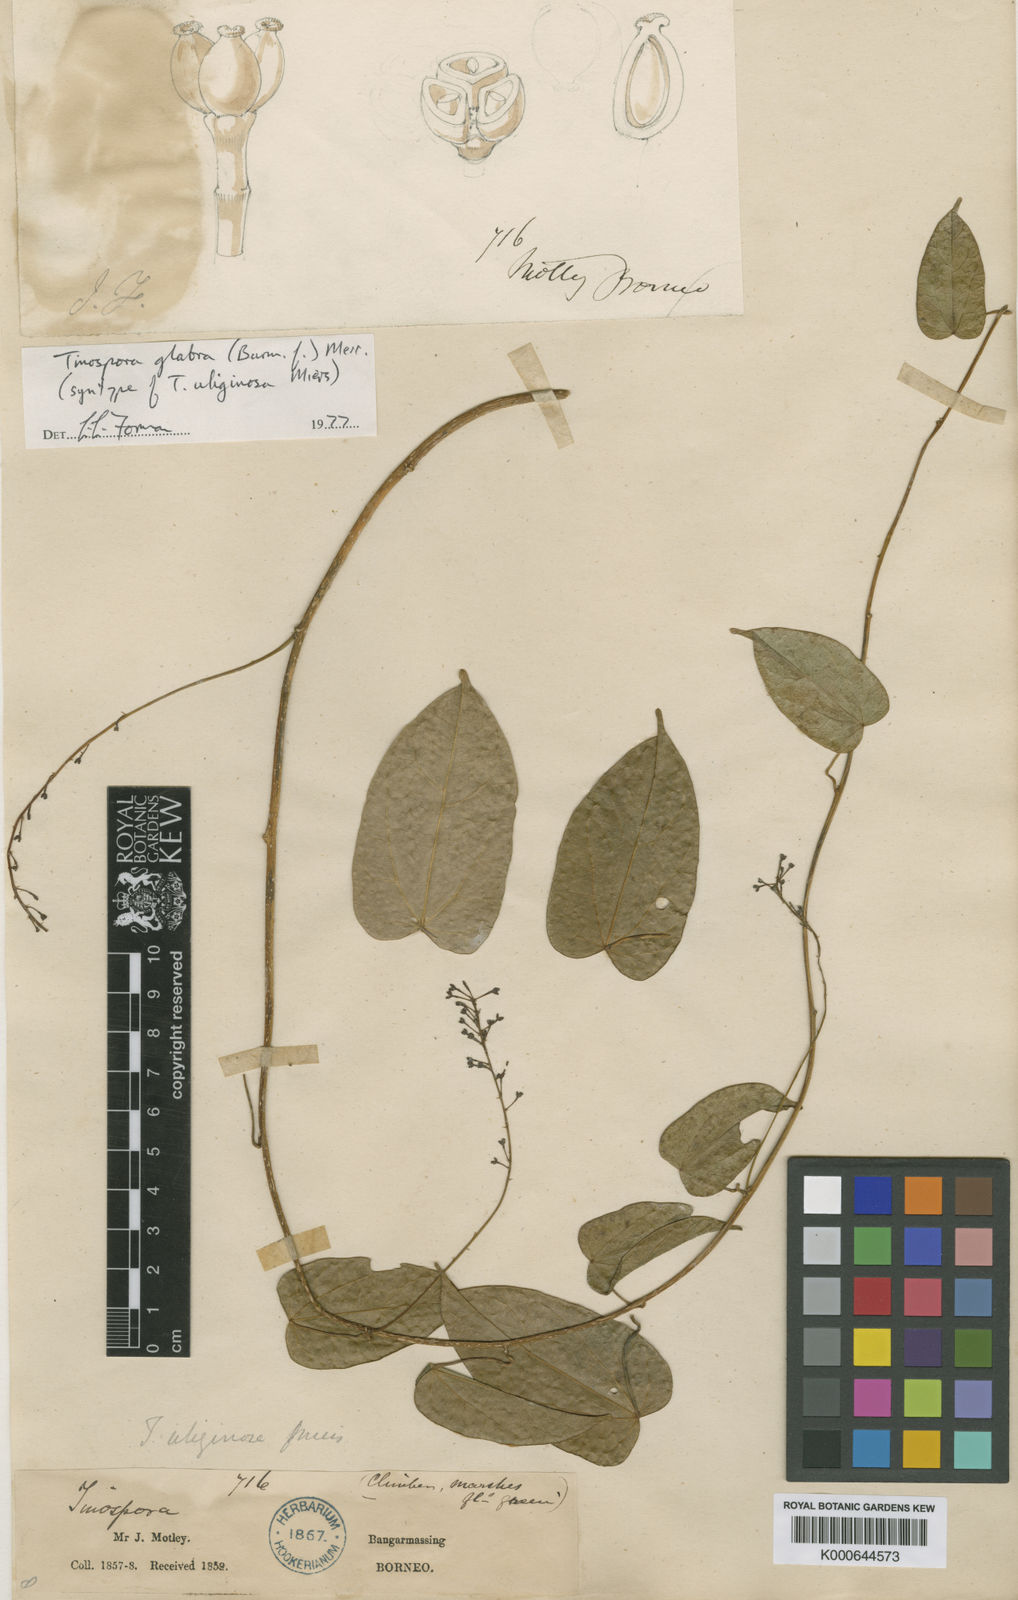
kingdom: Plantae
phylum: Tracheophyta
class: Magnoliopsida
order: Ranunculales
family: Menispermaceae
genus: Tinospora
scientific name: Tinospora glabra
